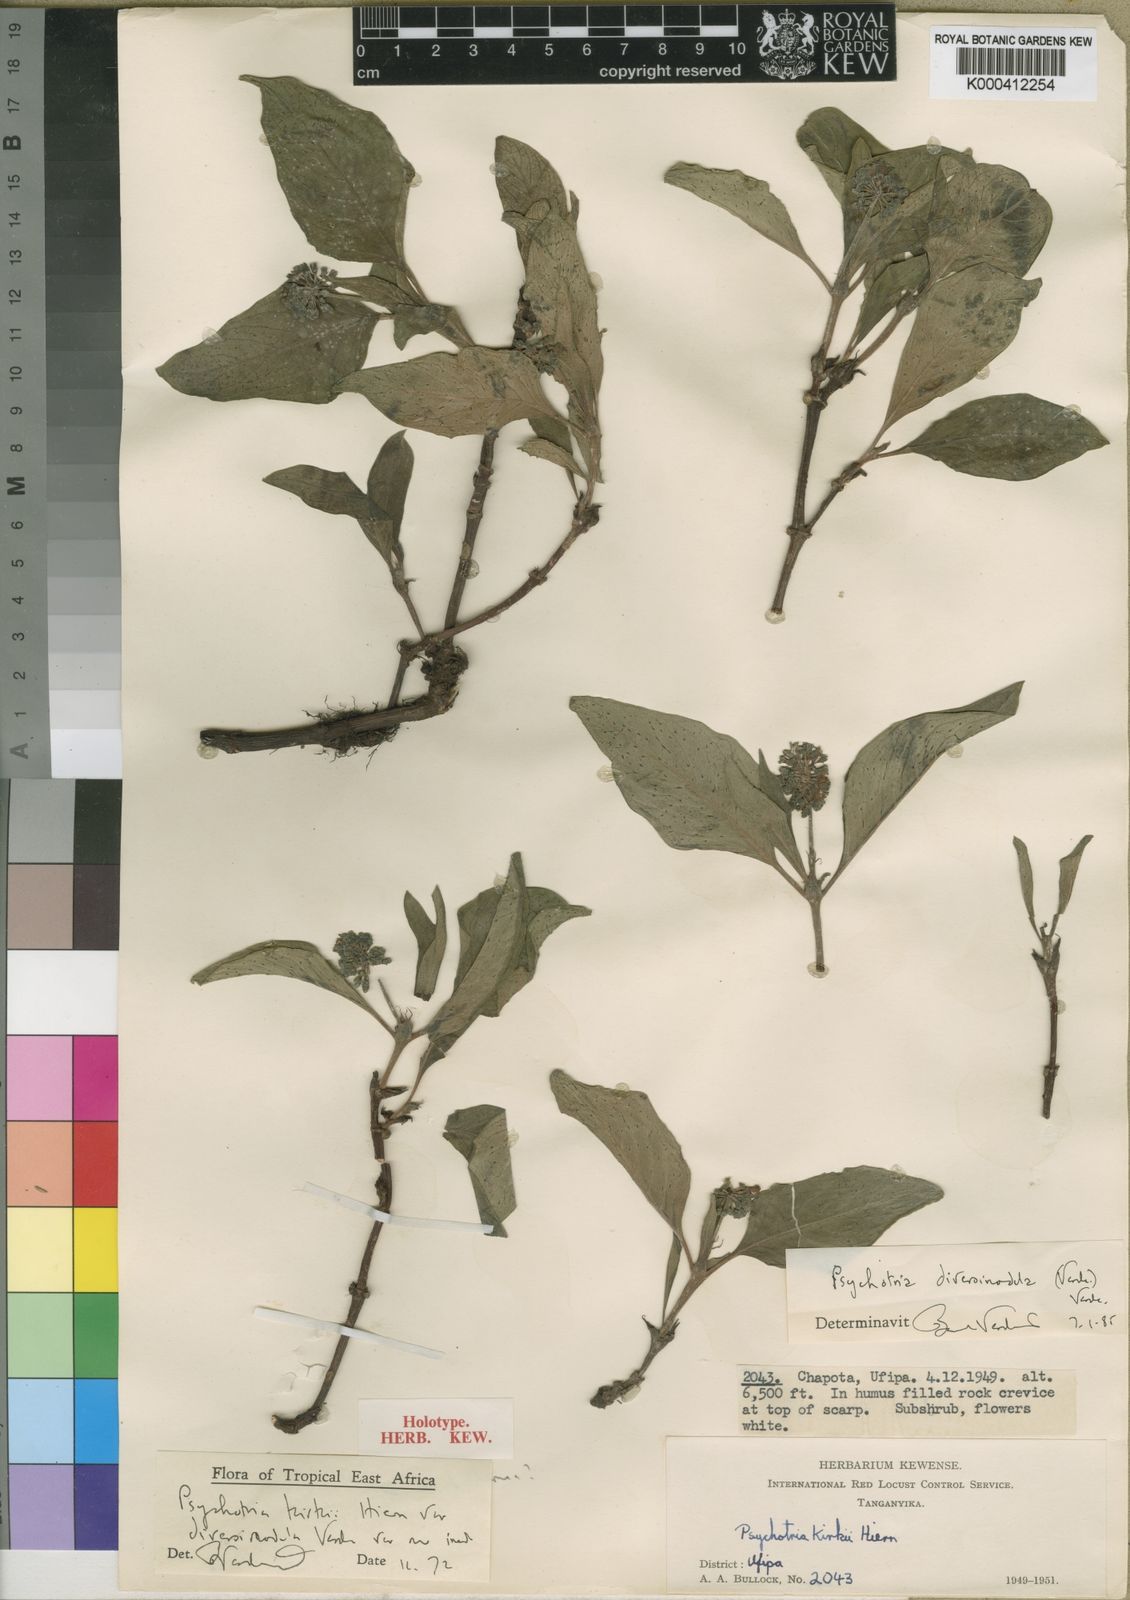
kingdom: Plantae
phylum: Tracheophyta
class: Magnoliopsida
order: Gentianales
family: Rubiaceae
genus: Psychotria
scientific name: Psychotria diversinodula
